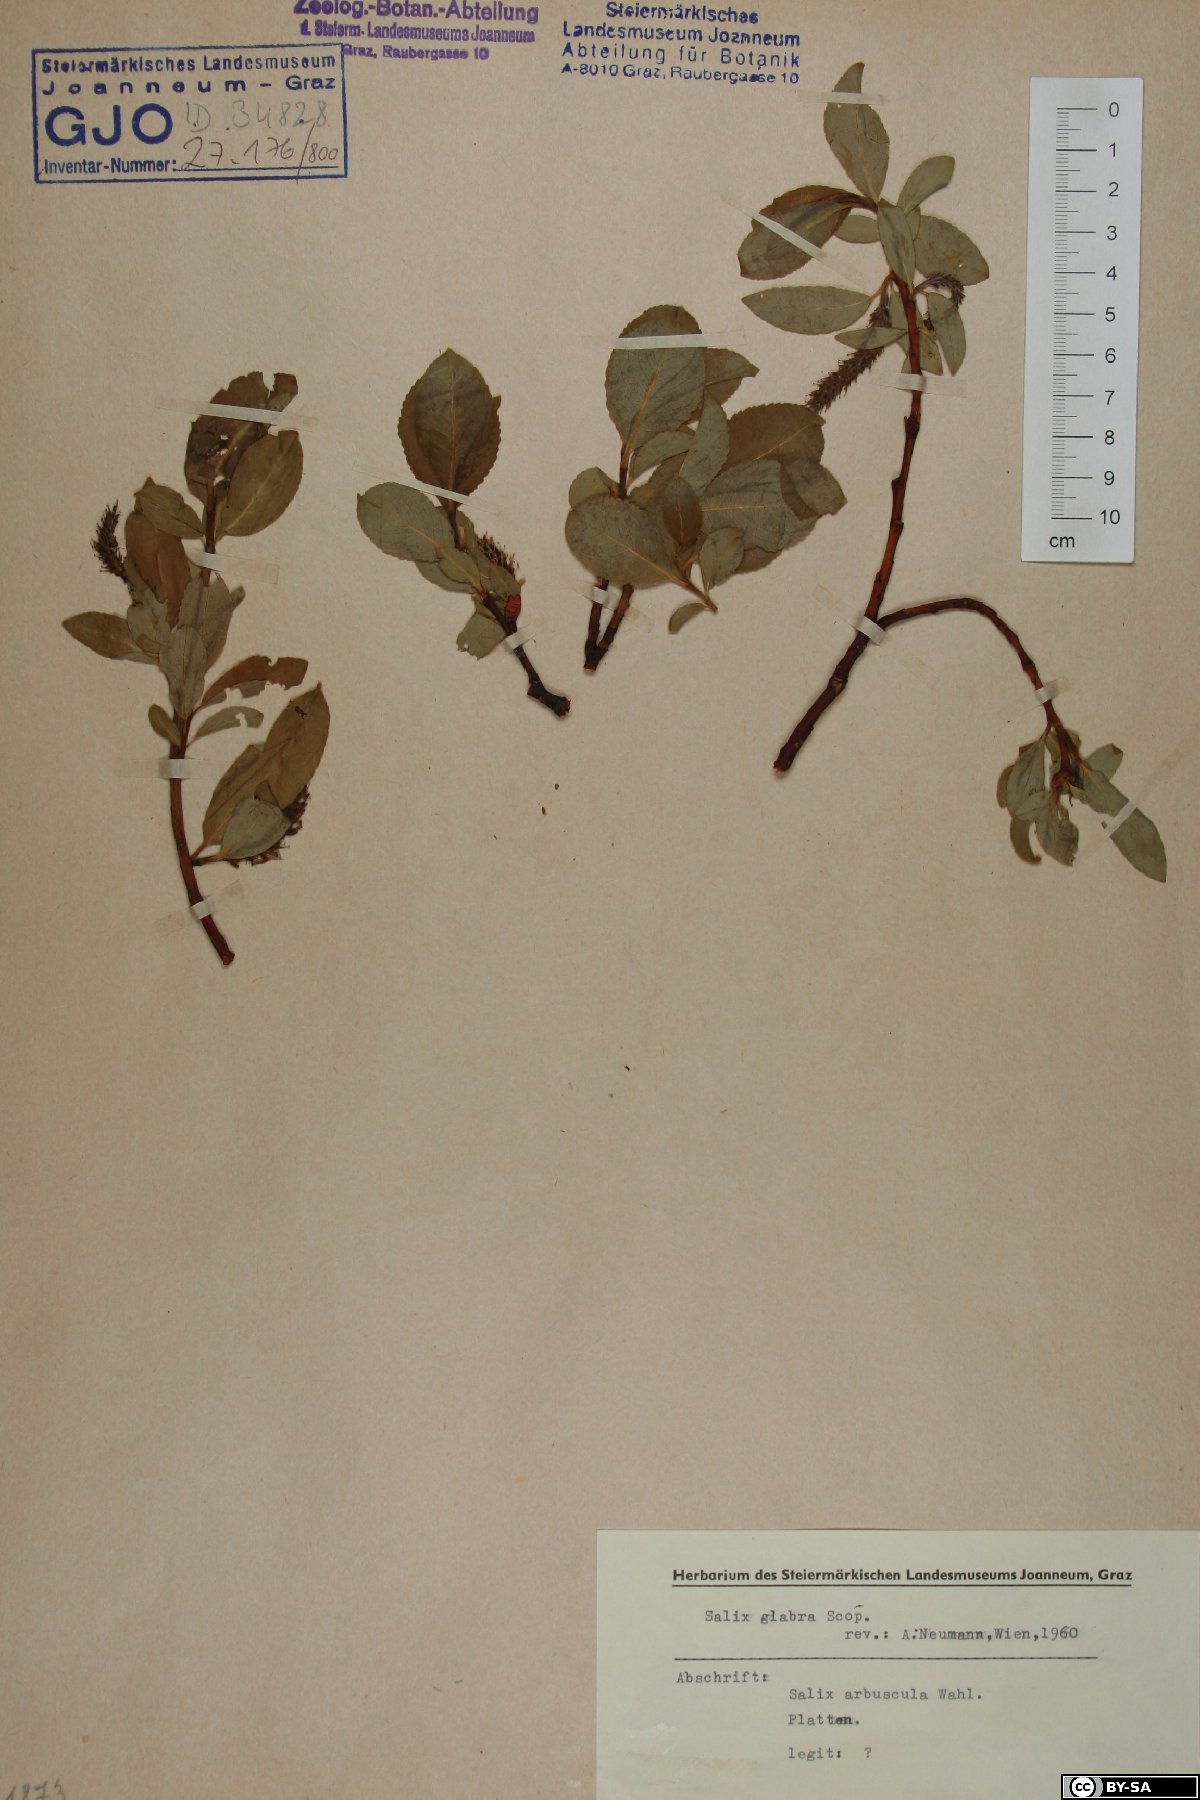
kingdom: Plantae
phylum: Tracheophyta
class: Magnoliopsida
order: Malpighiales
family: Salicaceae
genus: Salix
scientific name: Salix glabra
